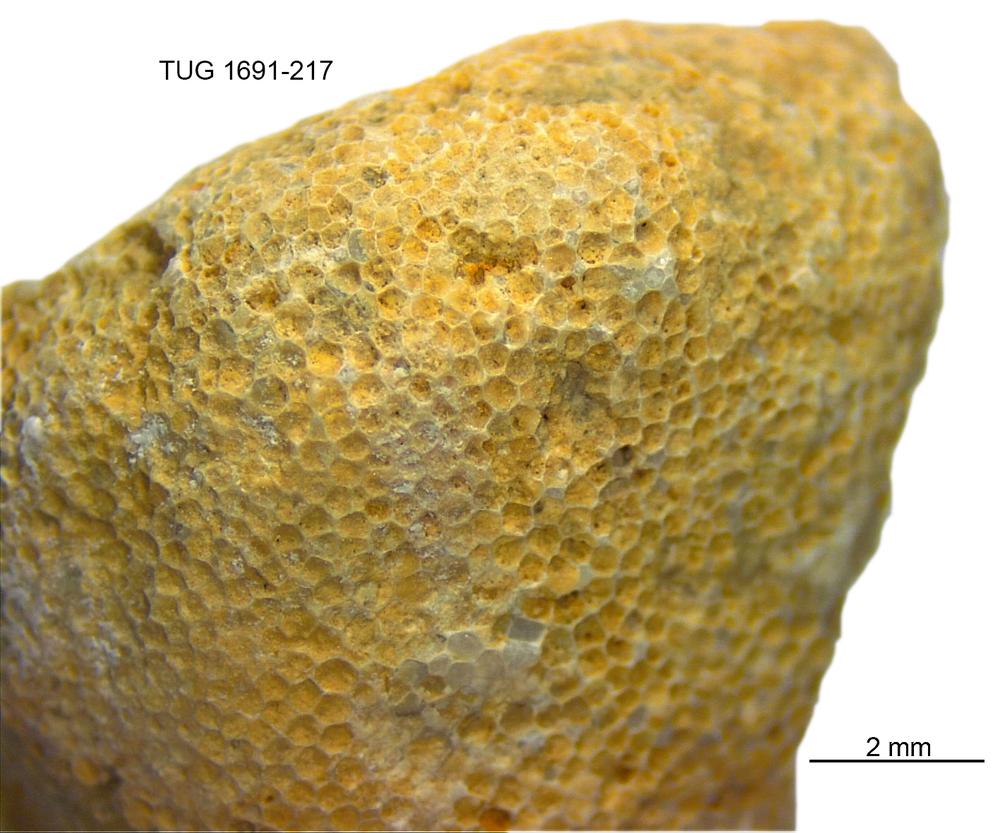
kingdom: Animalia
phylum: Bryozoa
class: Stenolaemata
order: Trepostomatida
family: Diplotrypidae
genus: Diplotrypa
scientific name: Diplotrypa
